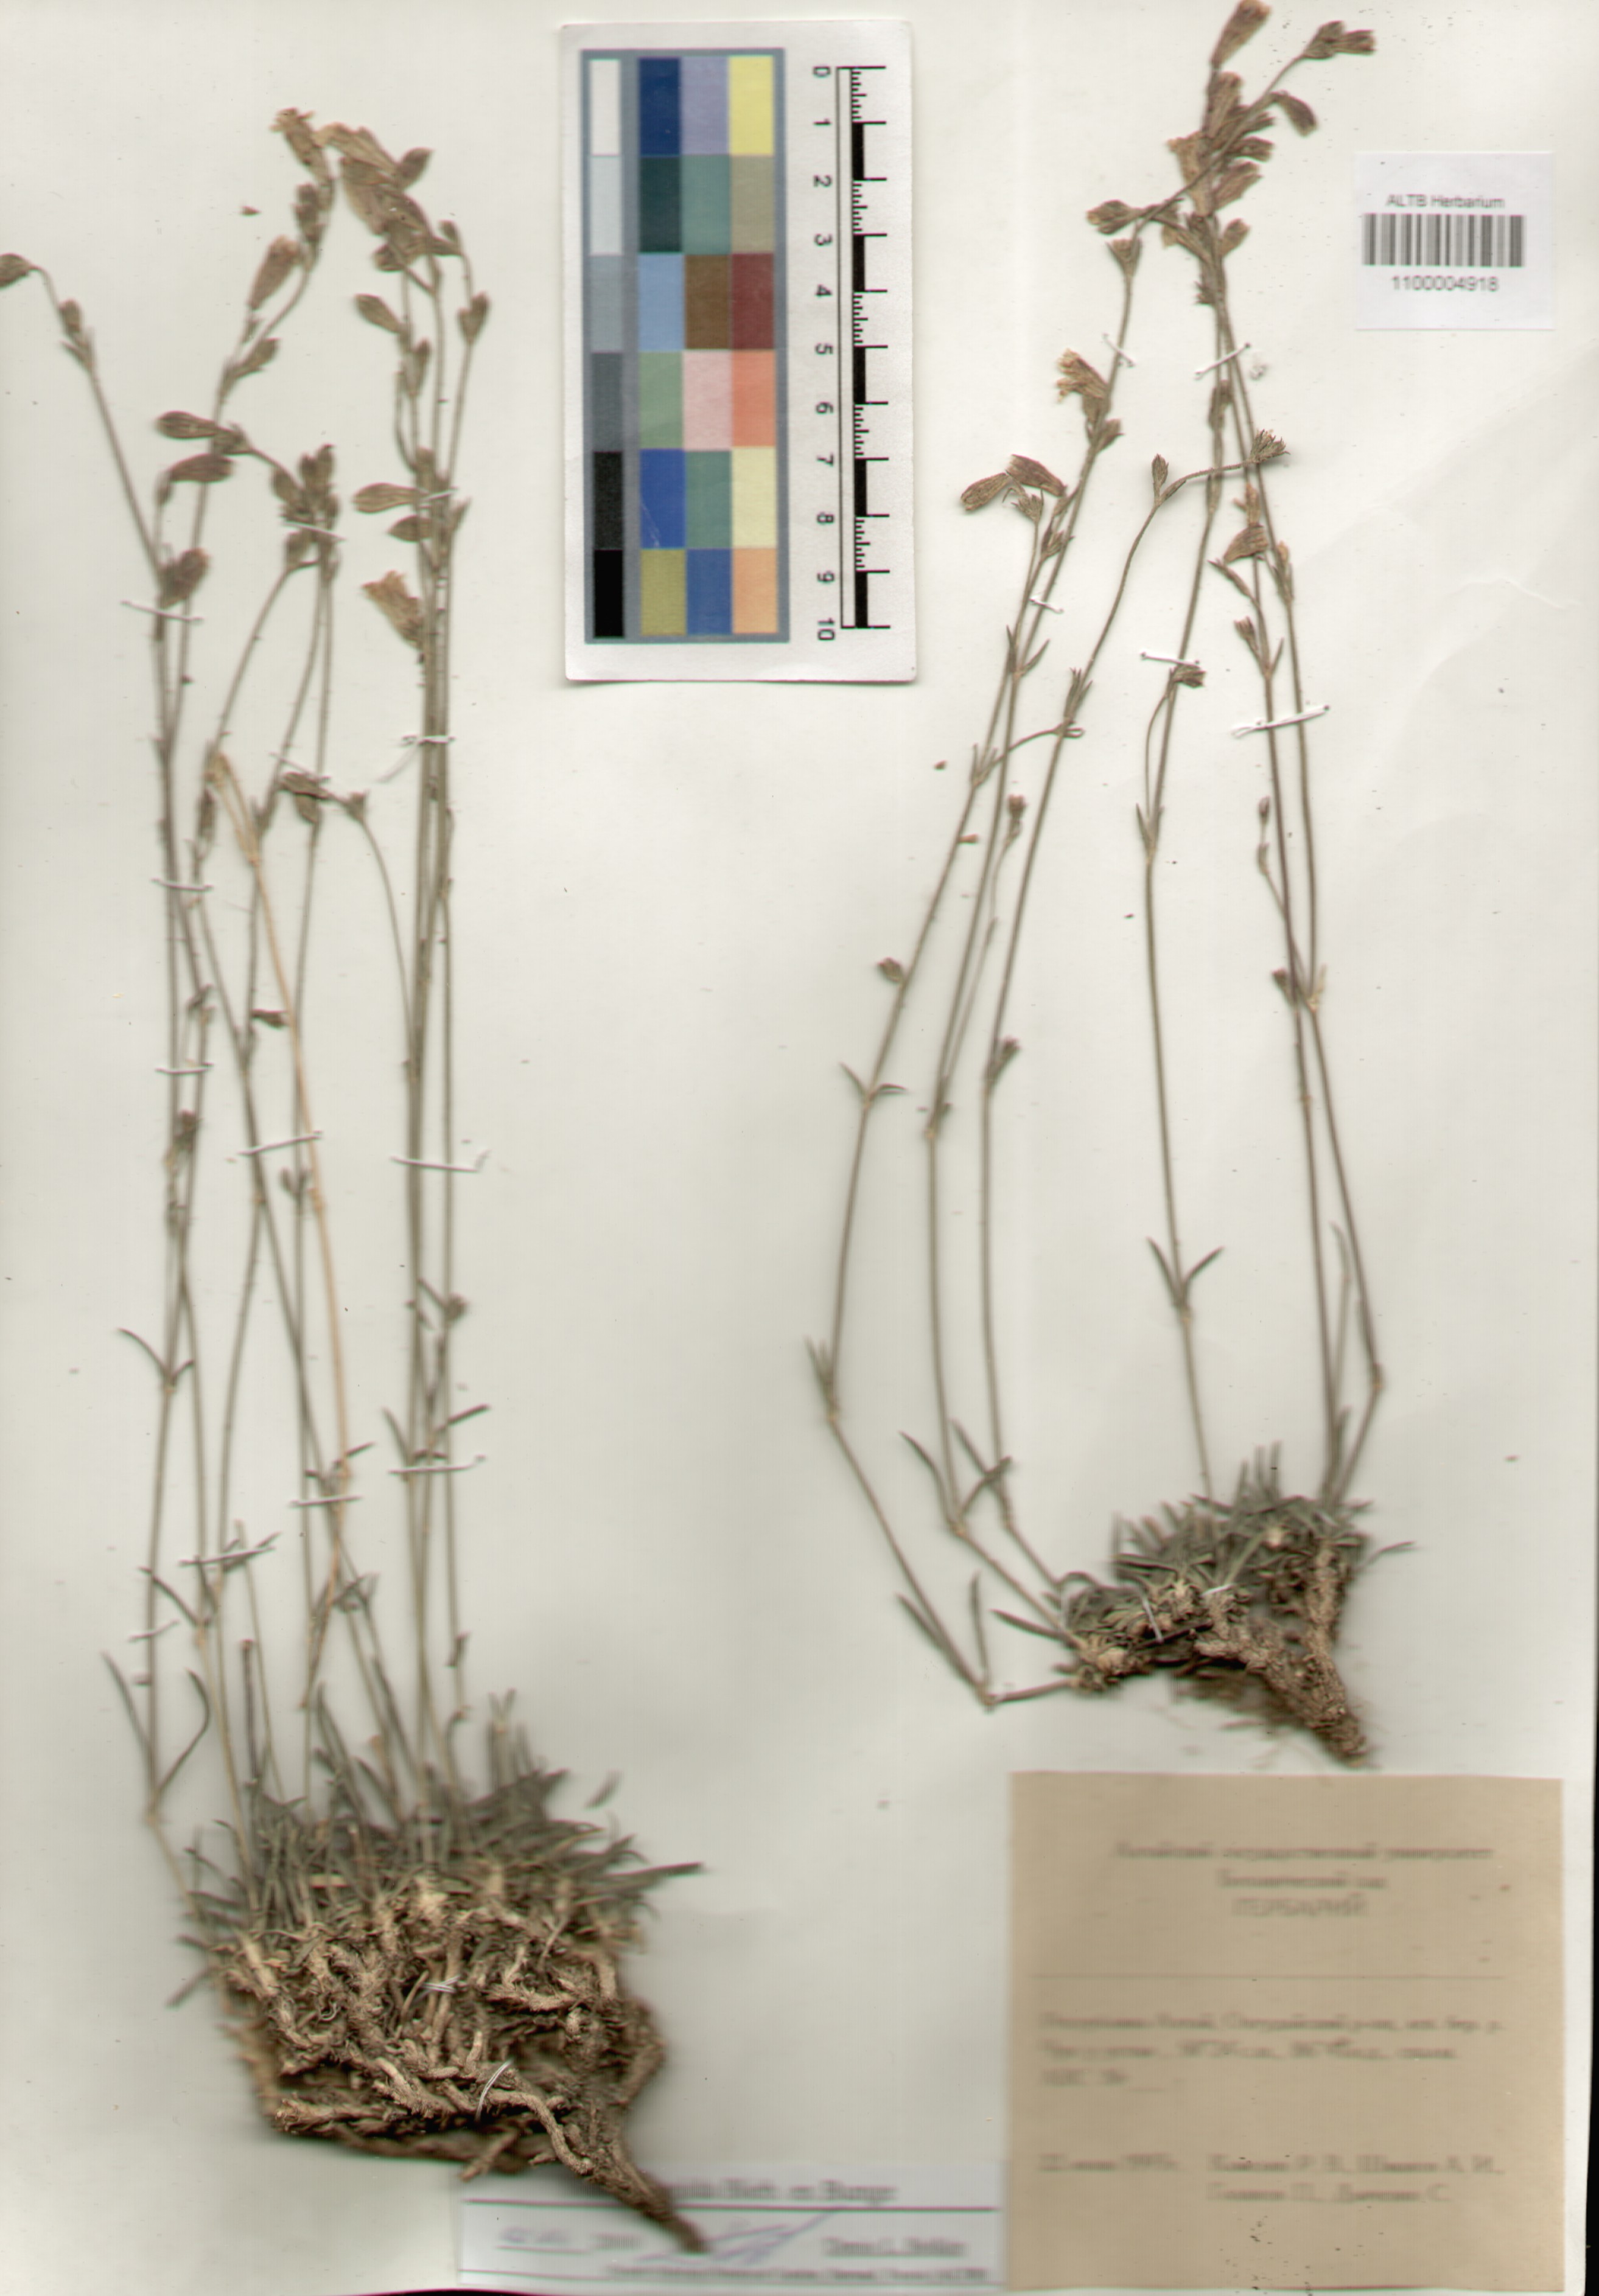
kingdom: Plantae
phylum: Tracheophyta
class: Magnoliopsida
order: Caryophyllales
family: Caryophyllaceae
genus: Silene
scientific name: Silene turgida
